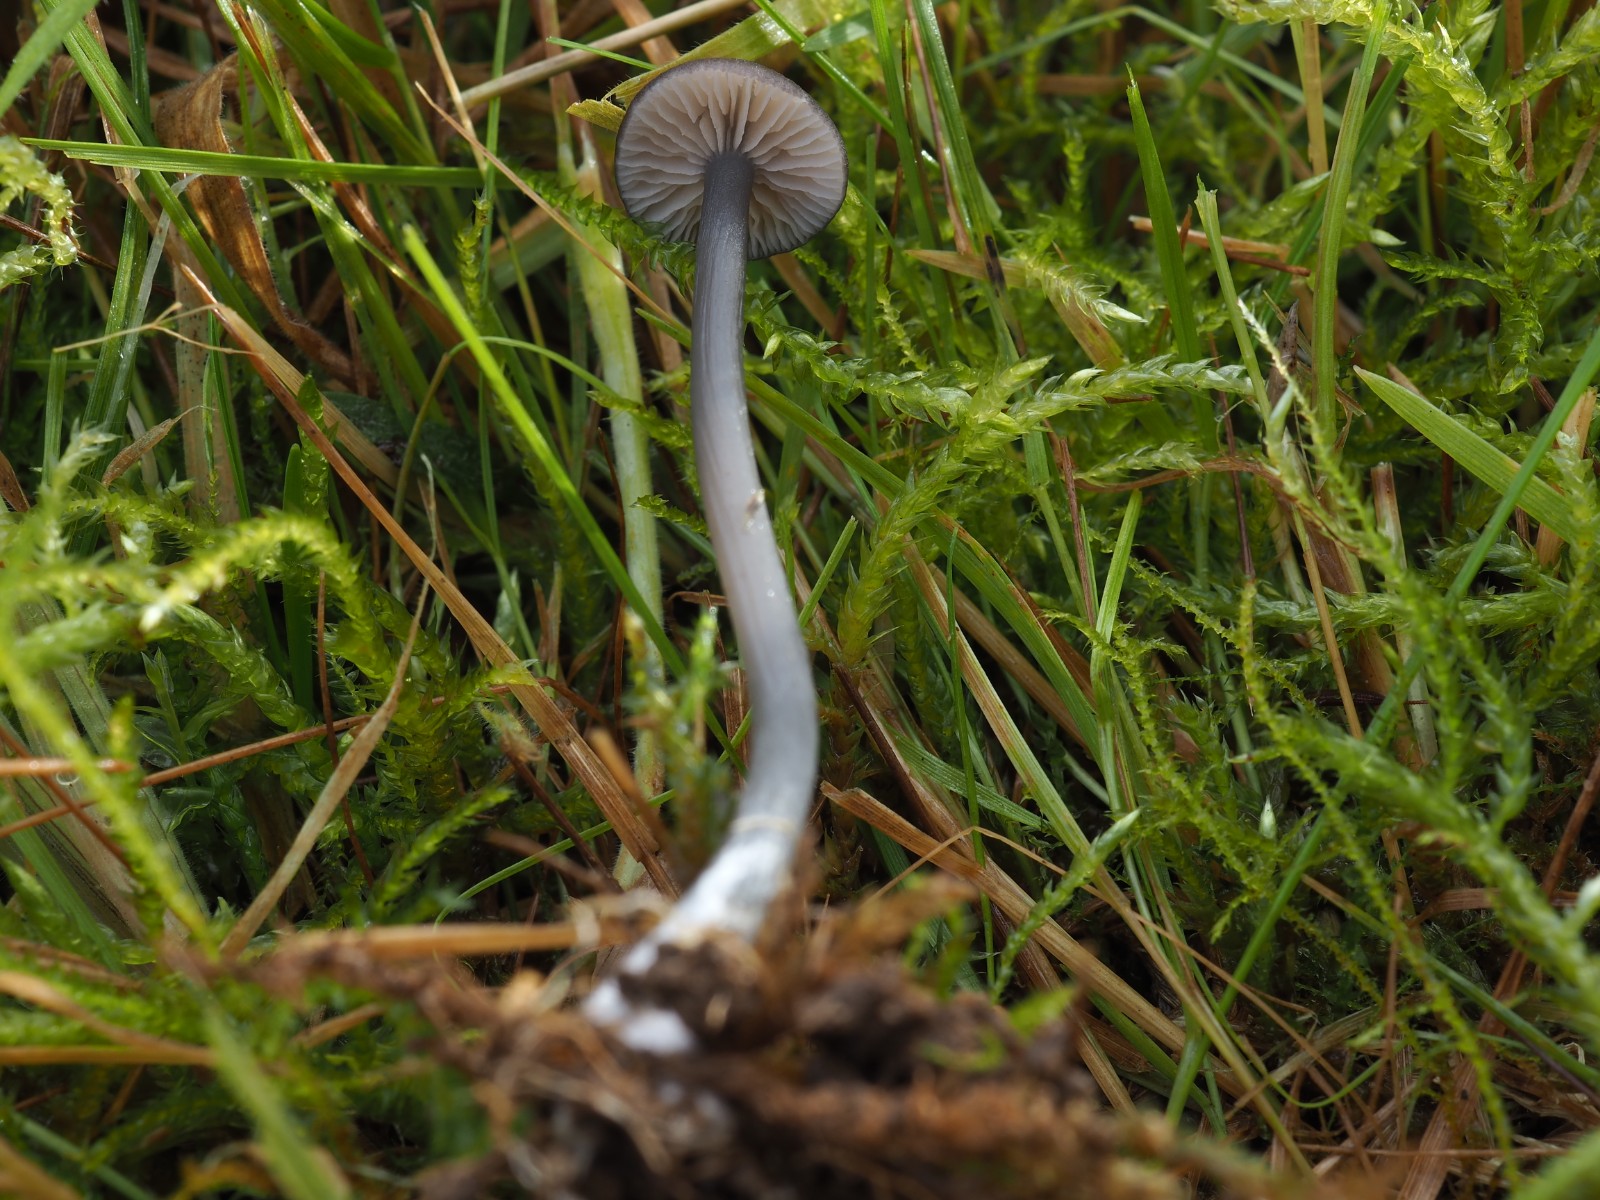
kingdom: Fungi
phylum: Basidiomycota
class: Agaricomycetes
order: Agaricales
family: Entolomataceae
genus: Entoloma
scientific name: Entoloma
